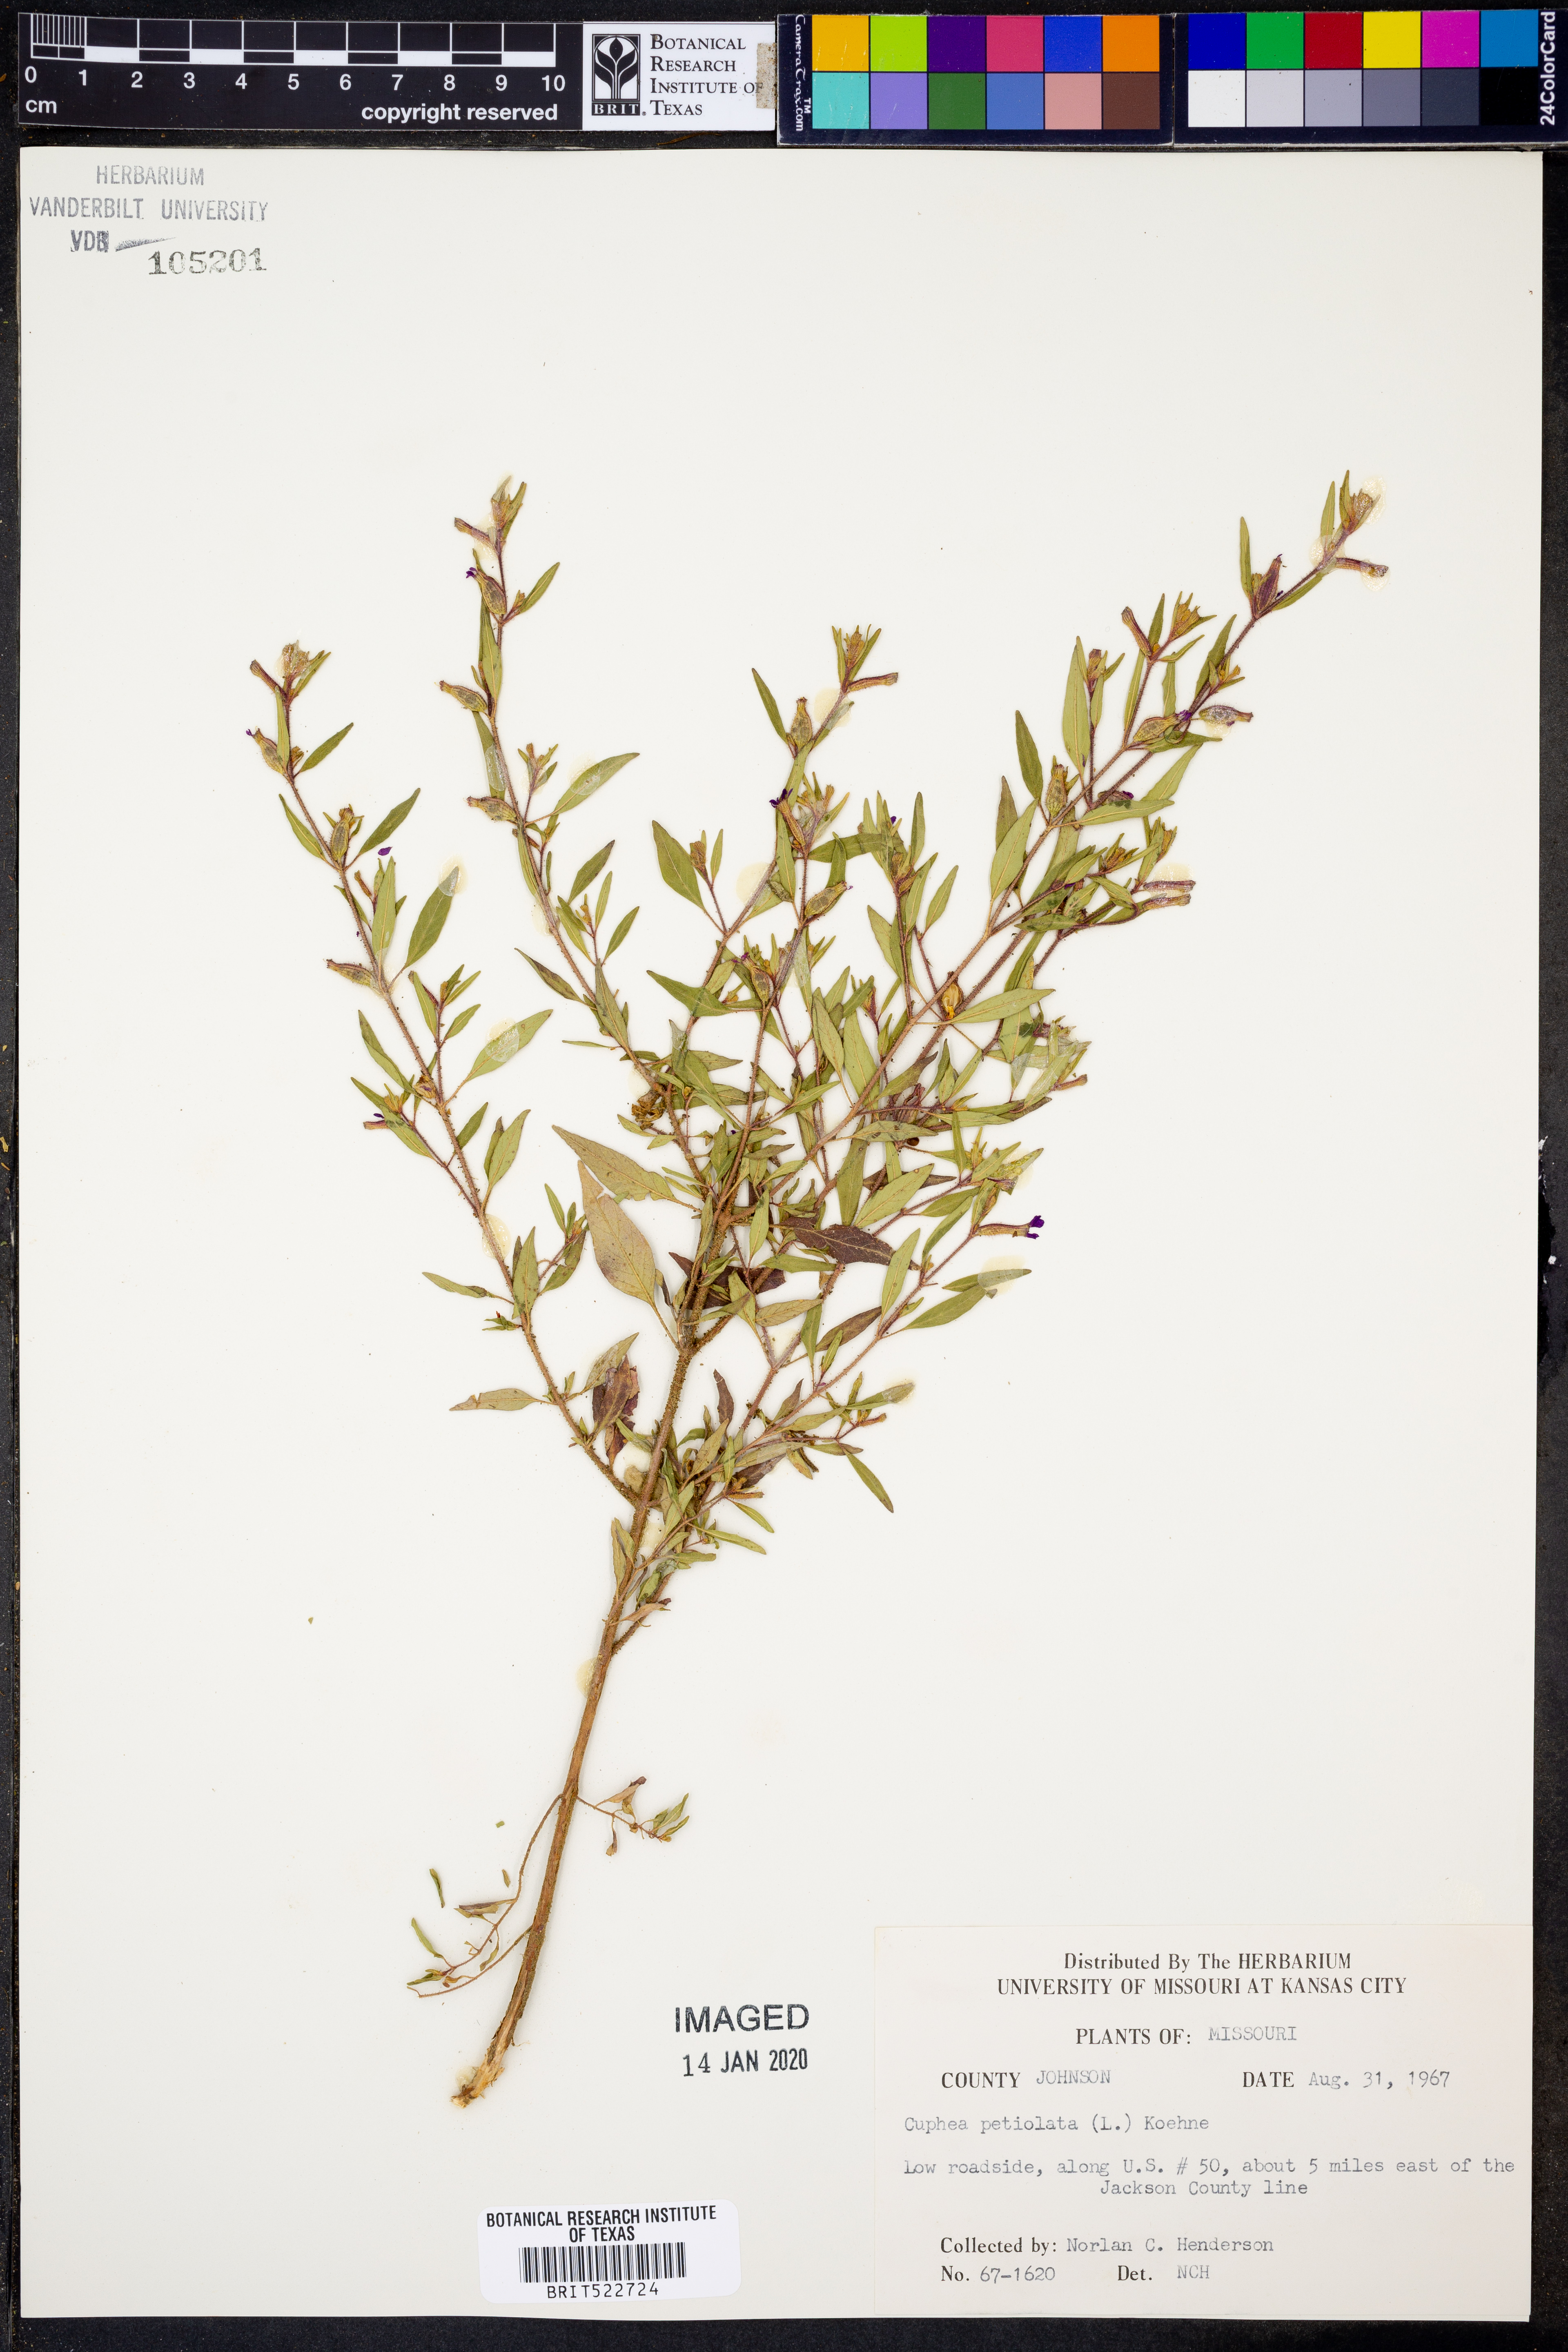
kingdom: Plantae
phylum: Tracheophyta
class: Magnoliopsida
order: Myrtales
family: Lythraceae
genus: Cuphea
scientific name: Cuphea viscosissima
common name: Clammy cuphea
